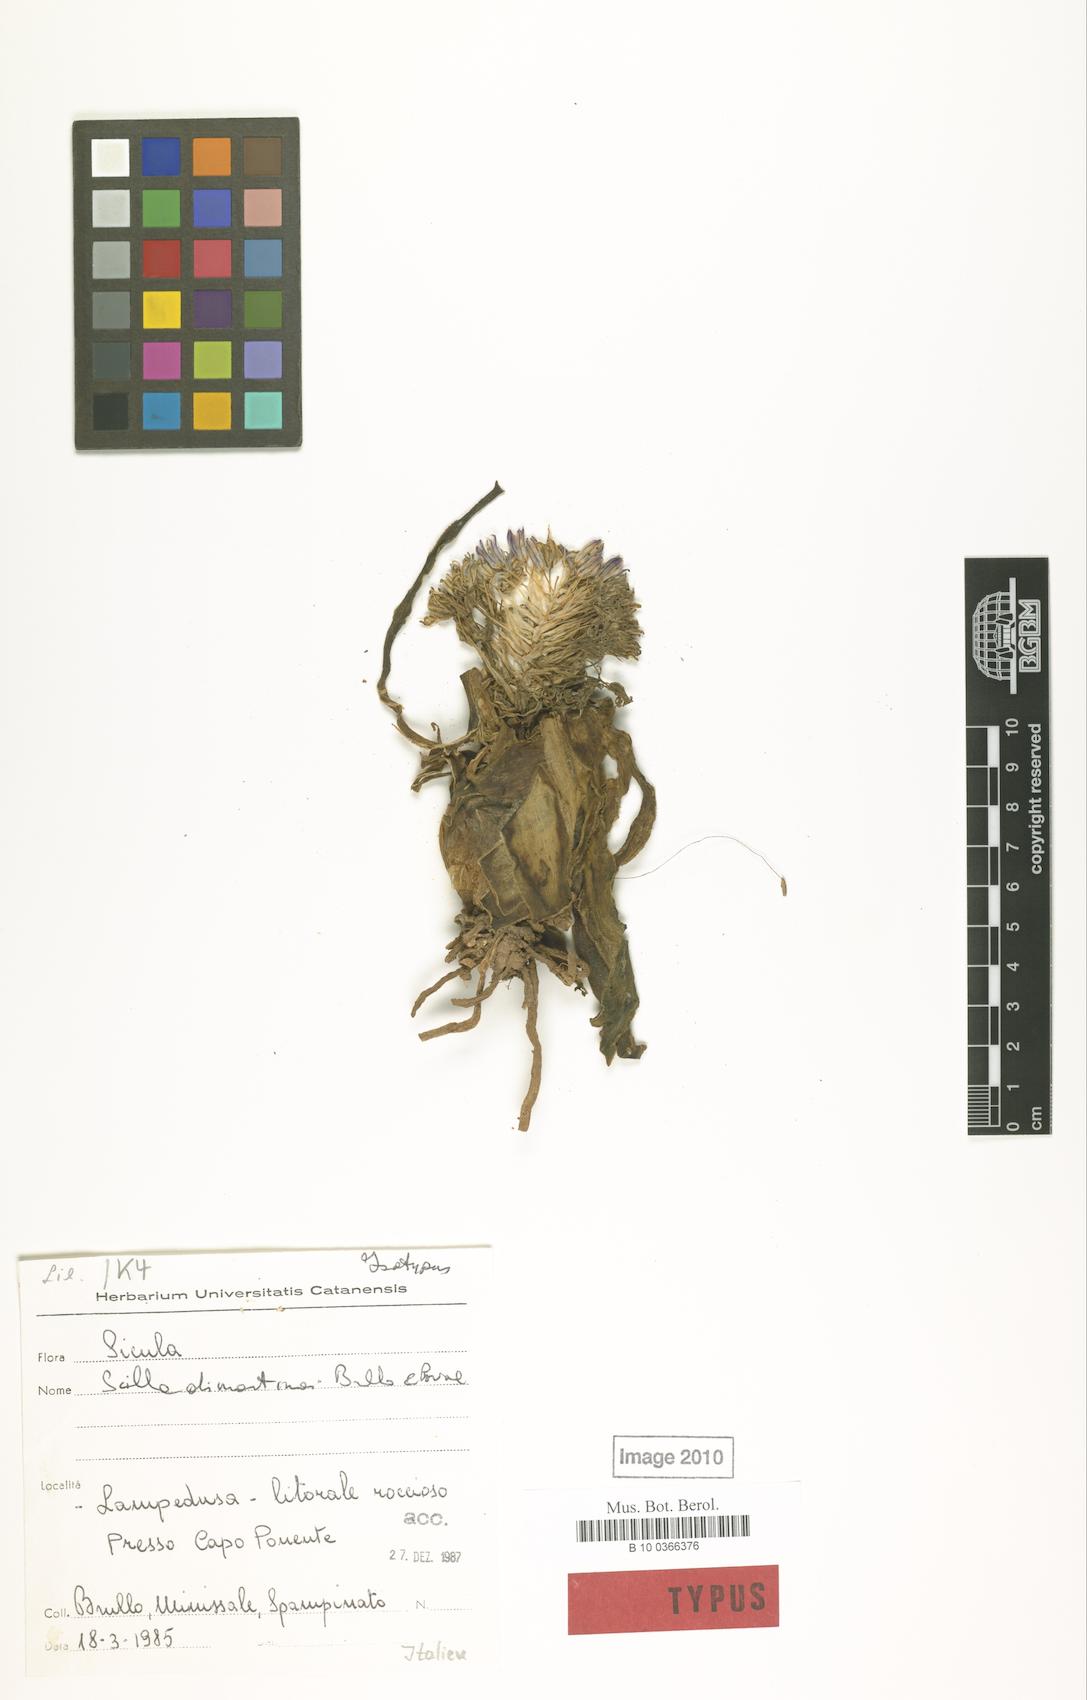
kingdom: Plantae
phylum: Tracheophyta
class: Liliopsida
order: Asparagales
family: Asparagaceae
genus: Scilla
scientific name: Scilla dimartinoi
